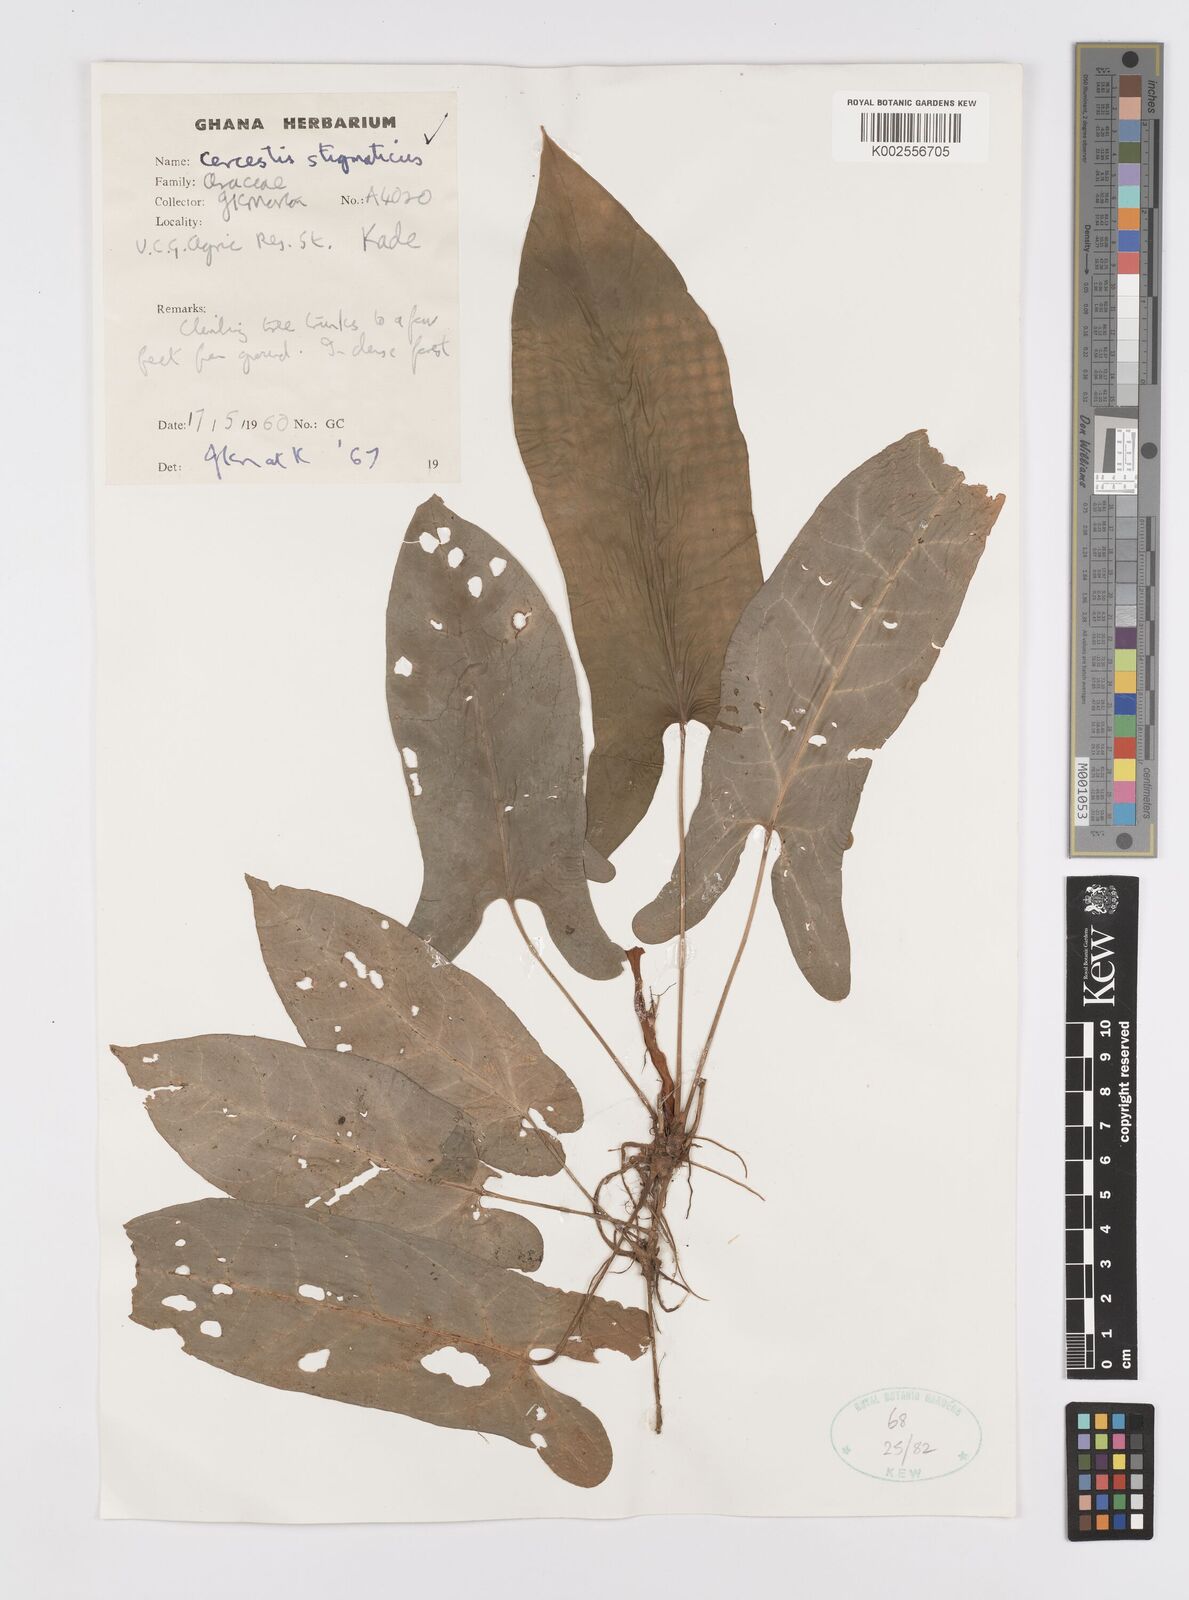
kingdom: Plantae
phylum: Tracheophyta
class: Liliopsida
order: Alismatales
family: Araceae
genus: Cercestis
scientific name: Cercestis dinklagei
